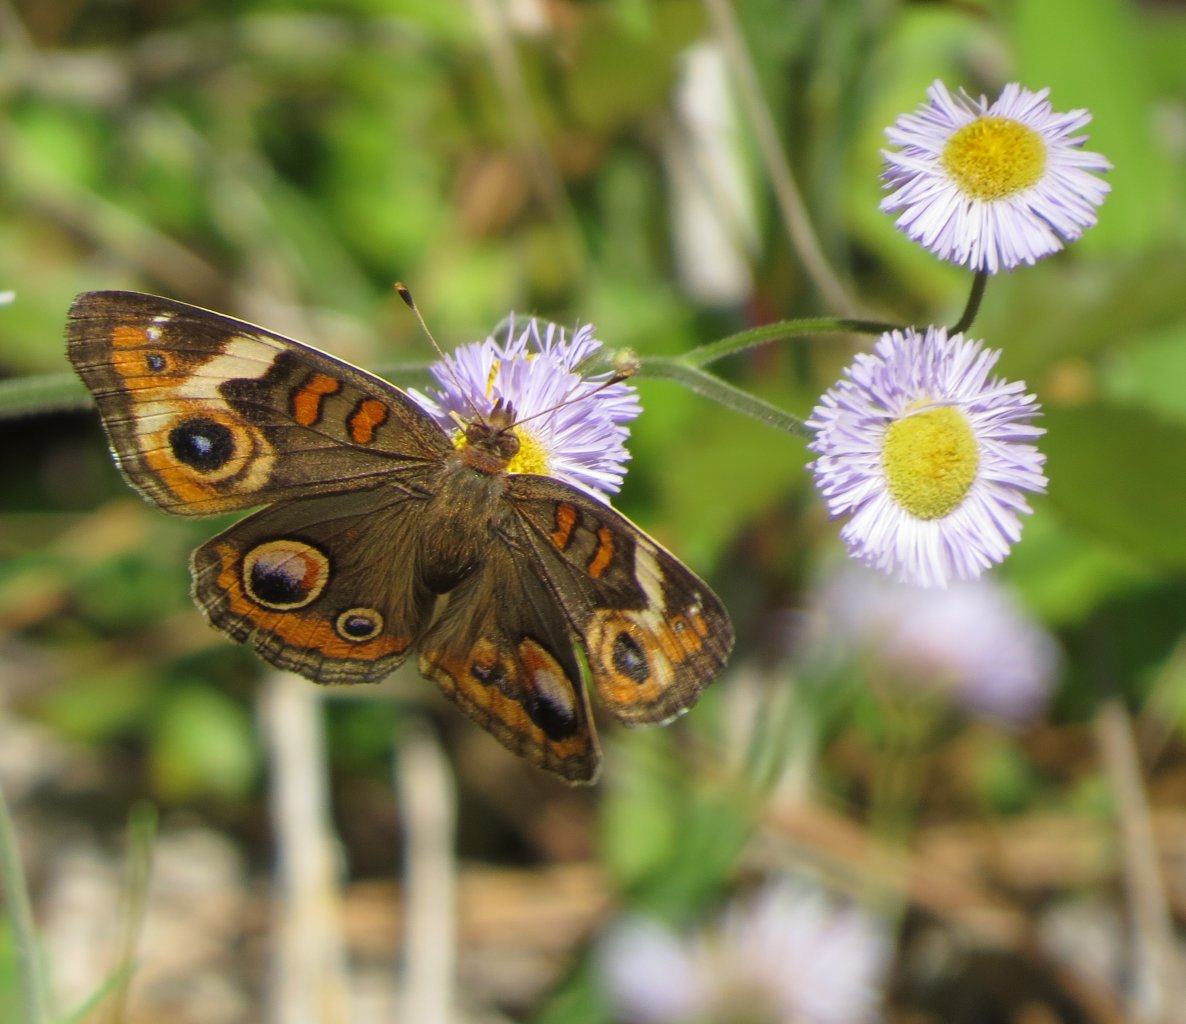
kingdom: Animalia
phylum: Arthropoda
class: Insecta
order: Lepidoptera
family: Nymphalidae
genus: Junonia
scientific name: Junonia coenia
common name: Common Buckeye
